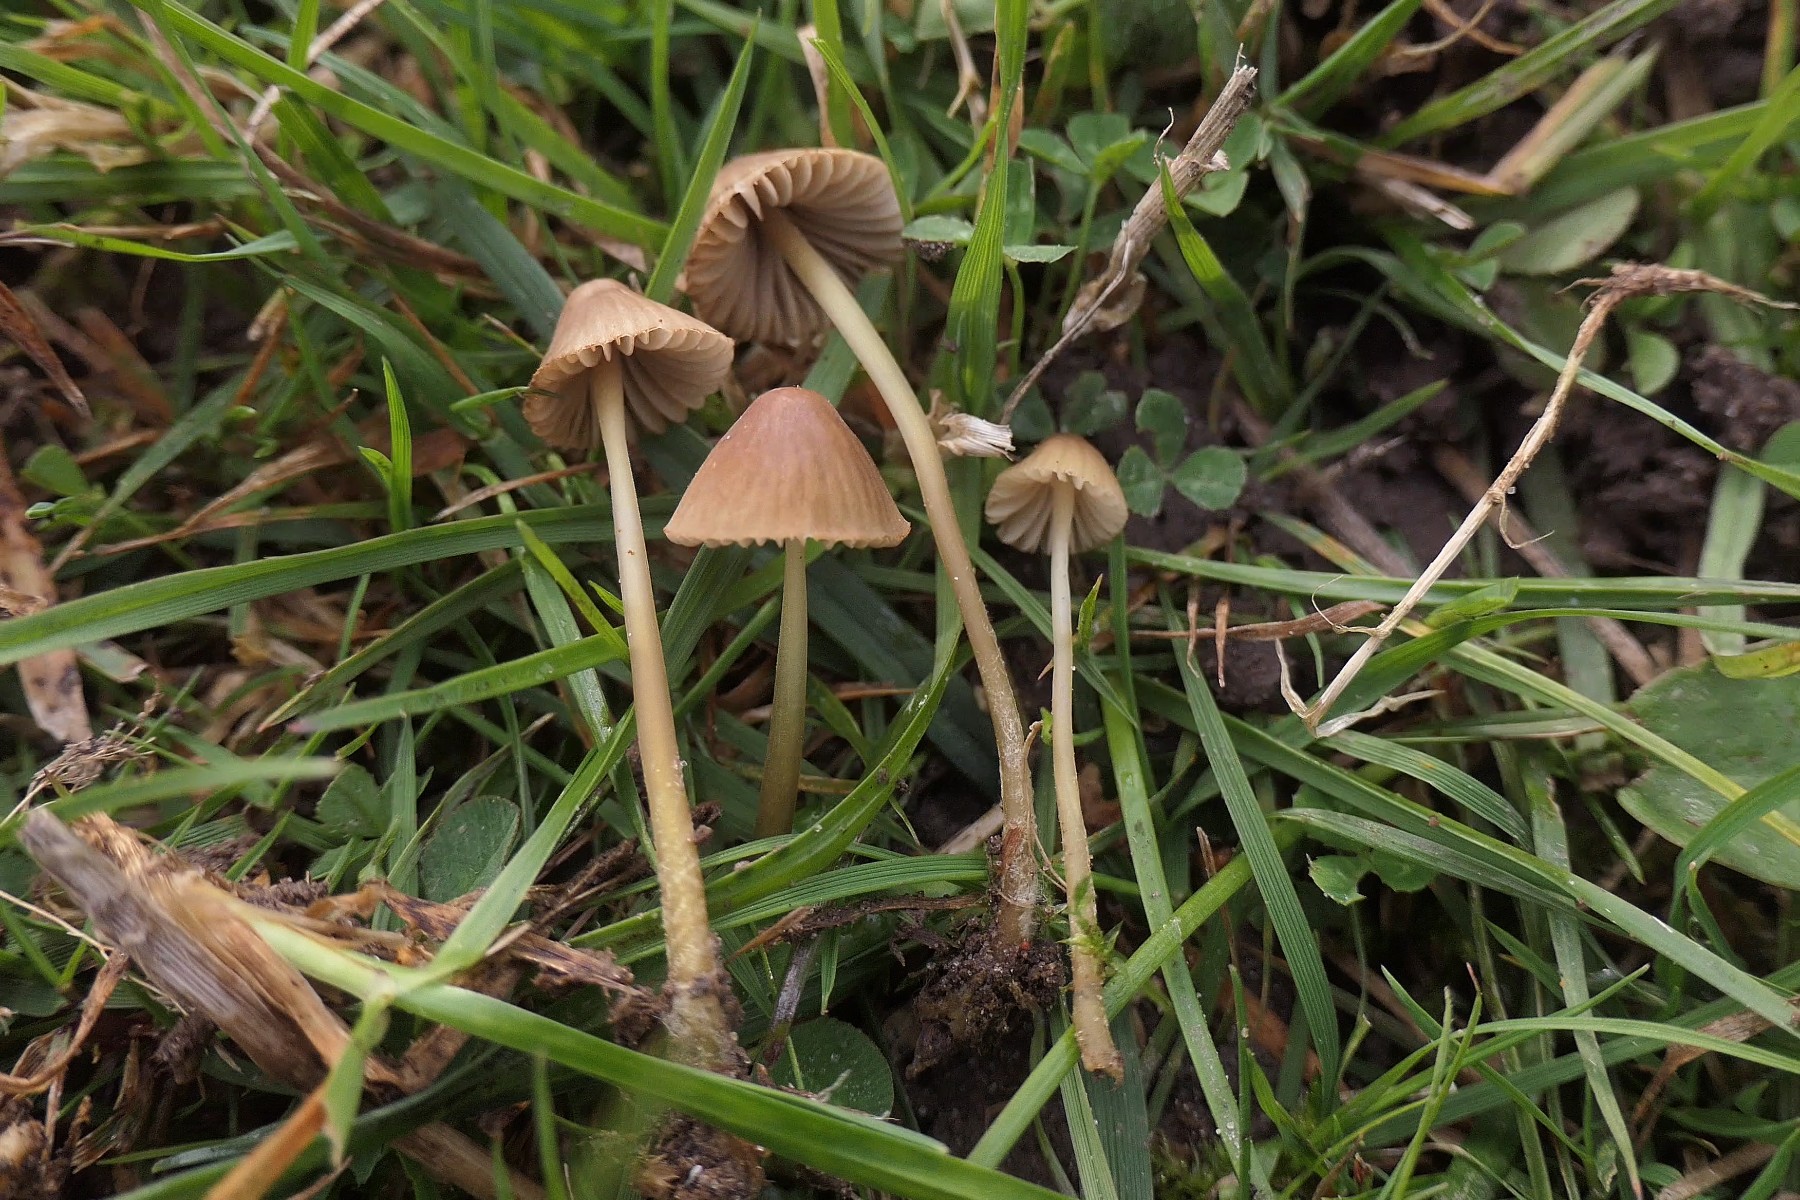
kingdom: Fungi
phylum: Basidiomycota
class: Agaricomycetes
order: Agaricales
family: Mycenaceae
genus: Mycena
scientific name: Mycena olivaceomarginata
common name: brunægget huesvamp
